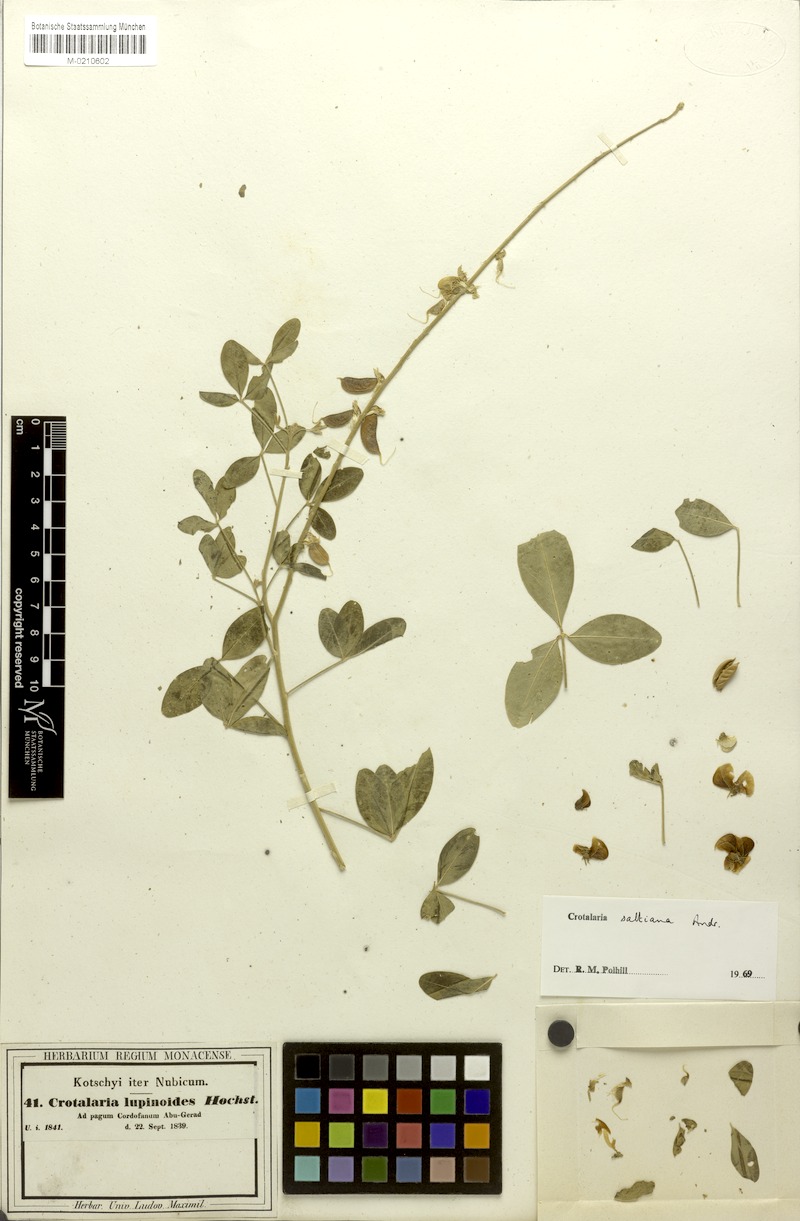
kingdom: Plantae
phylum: Tracheophyta
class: Magnoliopsida
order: Fabales
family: Fabaceae
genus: Crotalaria
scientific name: Crotalaria saltiana
